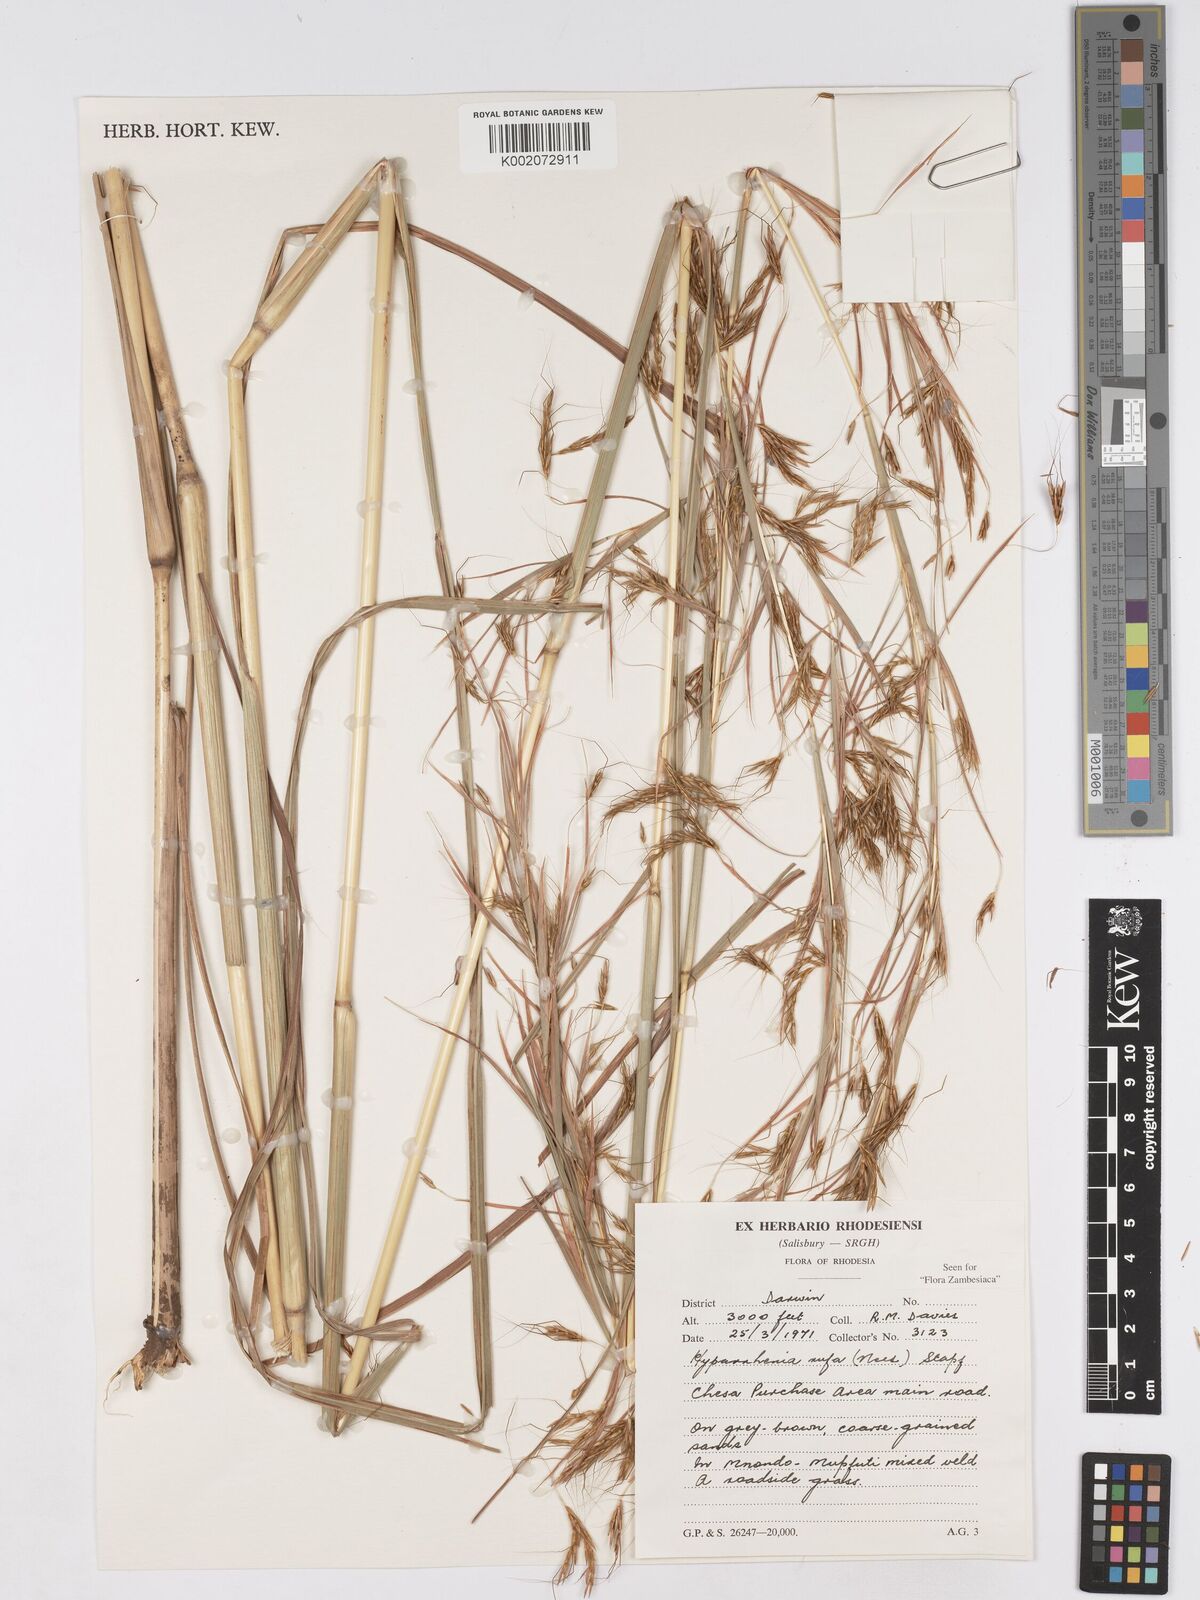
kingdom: Plantae
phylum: Tracheophyta
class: Liliopsida
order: Poales
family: Poaceae
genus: Hyparrhenia
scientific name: Hyparrhenia rufa
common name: Jaraguagrass
